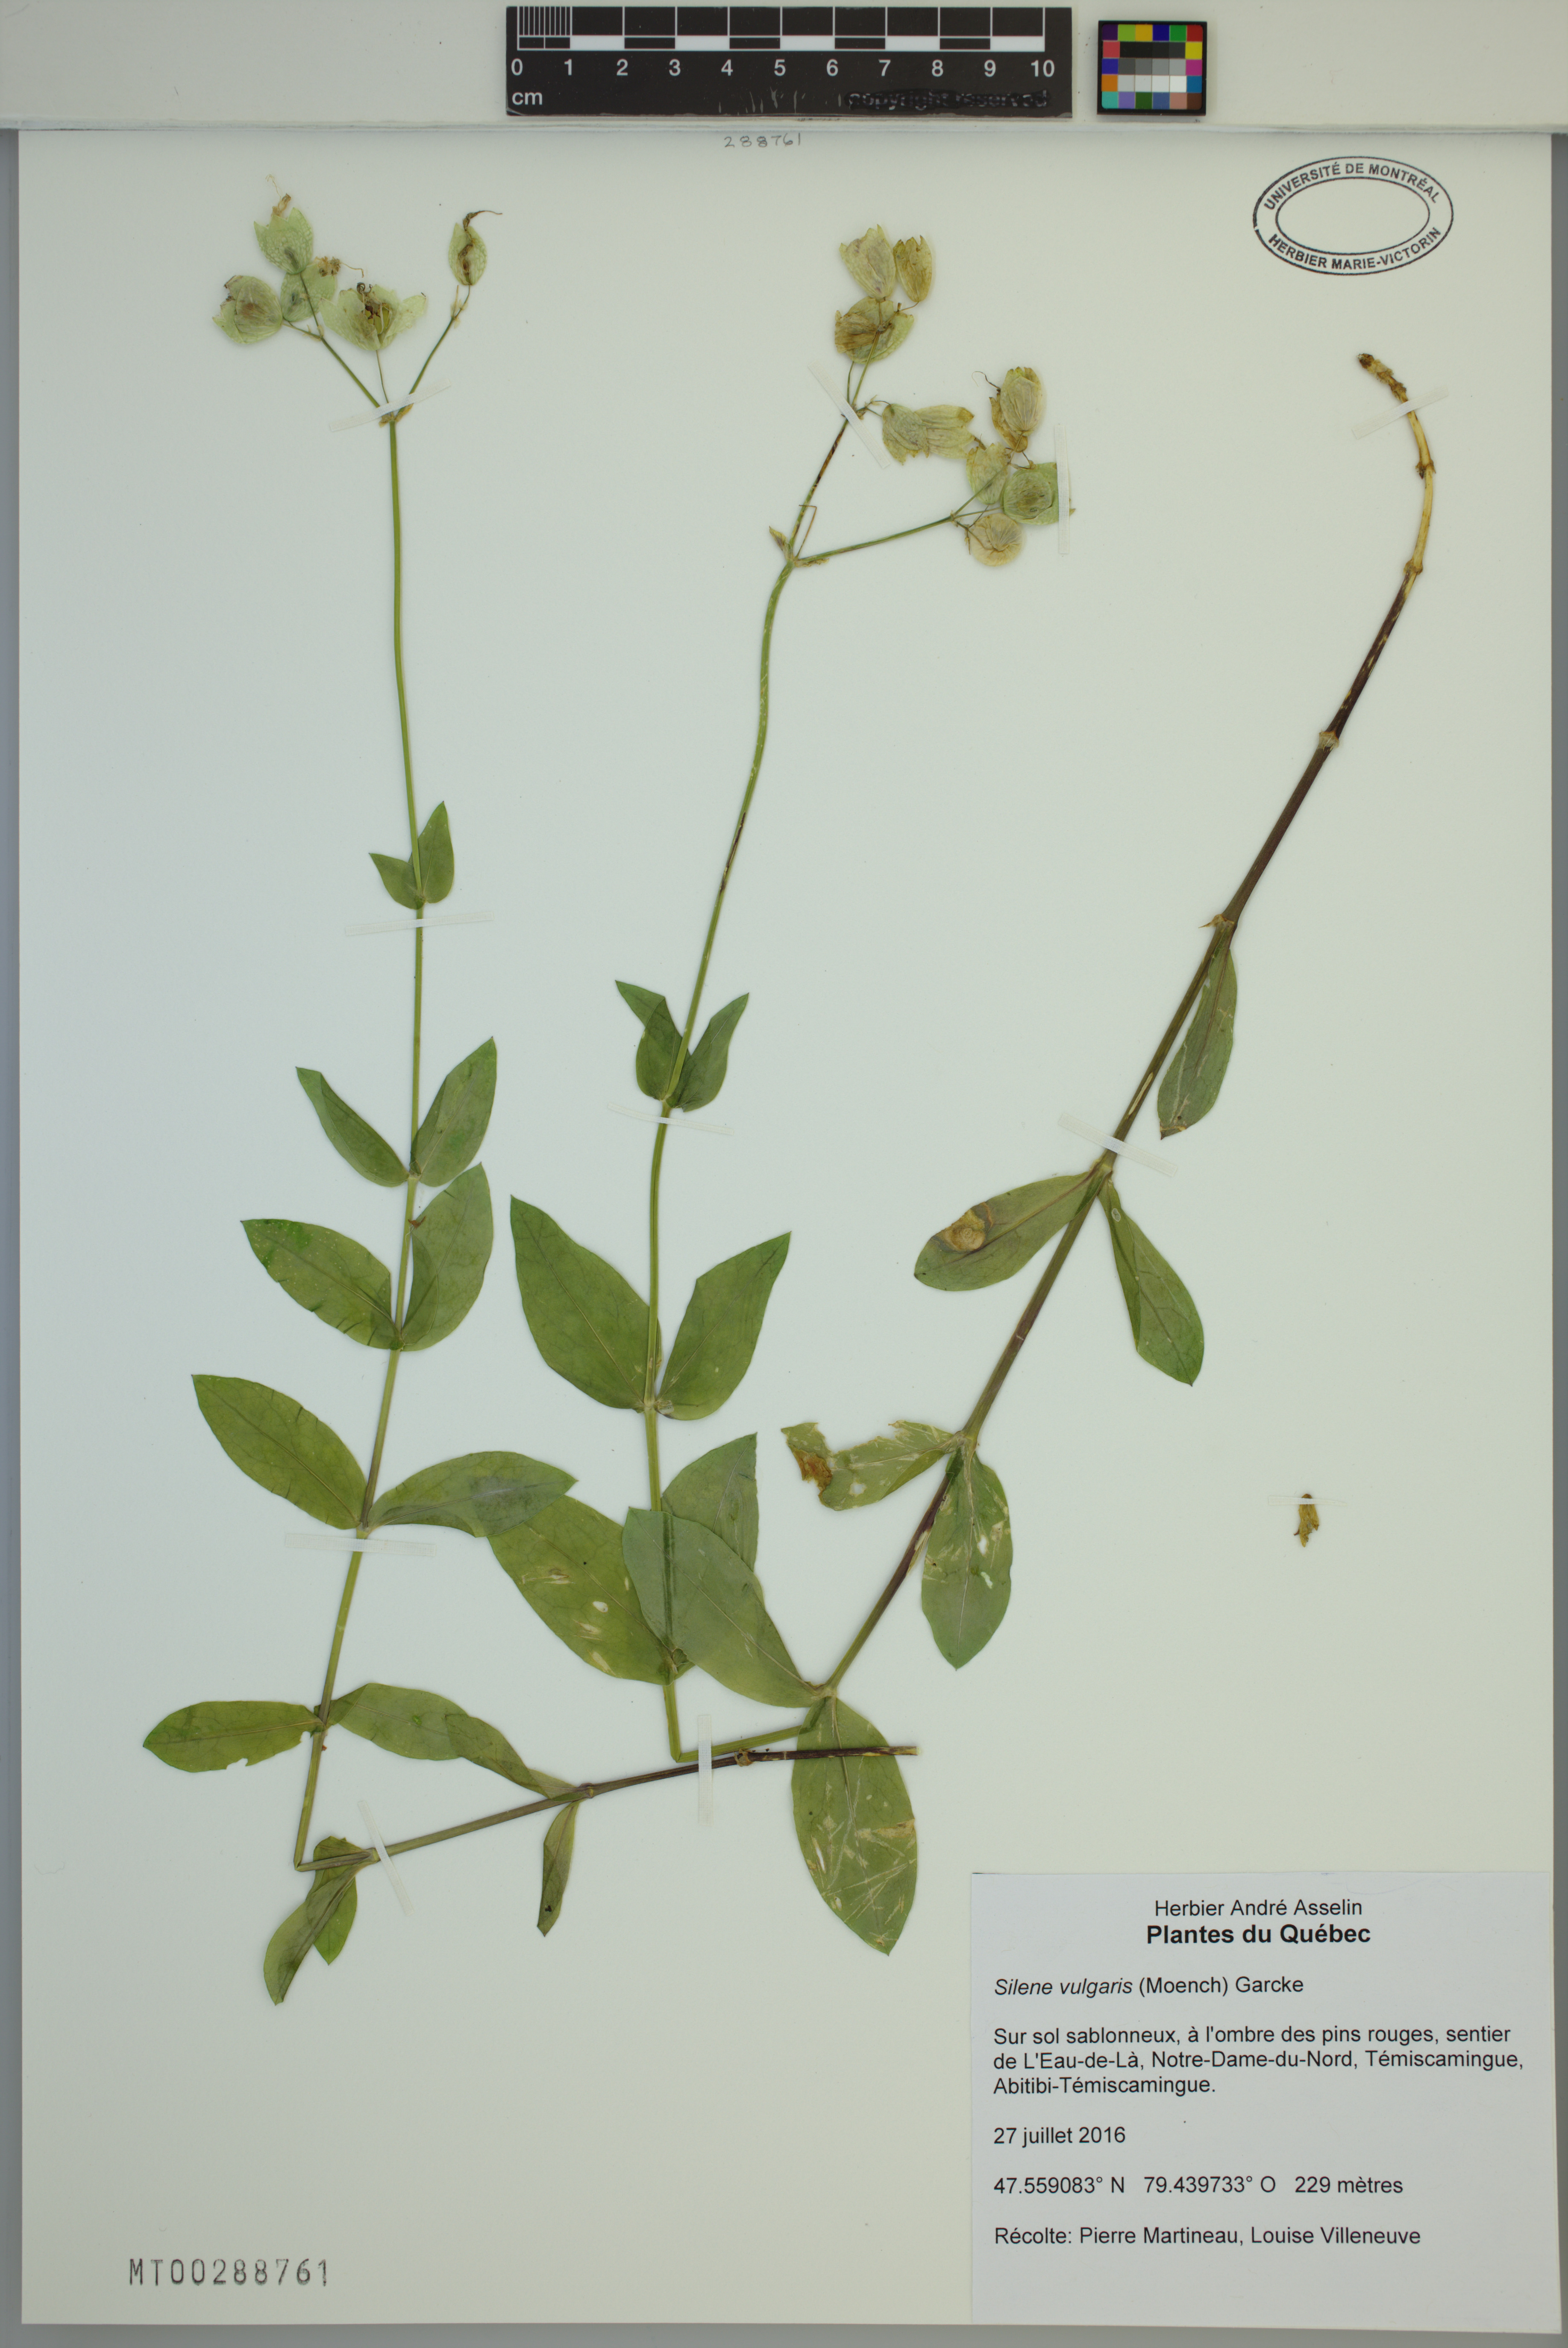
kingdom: Plantae
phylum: Tracheophyta
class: Magnoliopsida
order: Caryophyllales
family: Caryophyllaceae
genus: Silene
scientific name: Silene vulgaris
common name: Bladder campion
